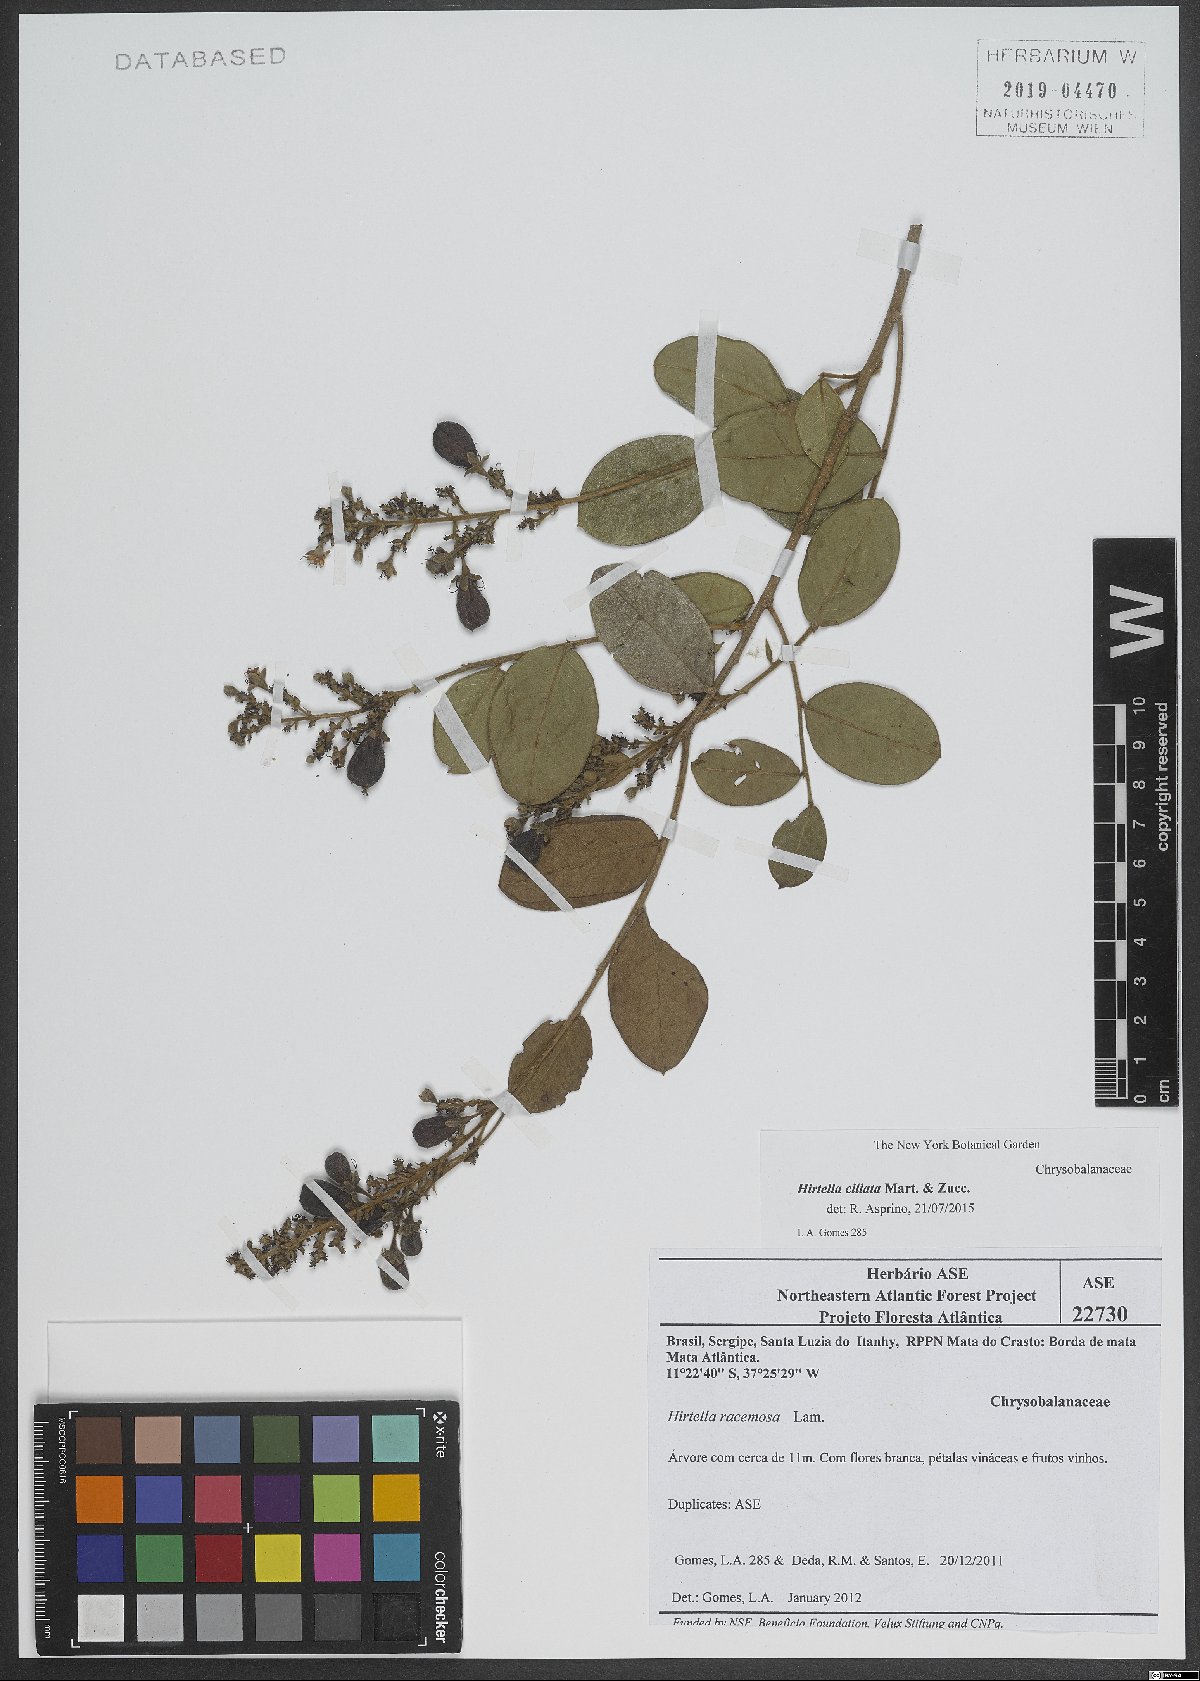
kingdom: Plantae
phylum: Tracheophyta
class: Magnoliopsida
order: Malpighiales
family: Chrysobalanaceae
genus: Hirtella
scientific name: Hirtella ciliata
